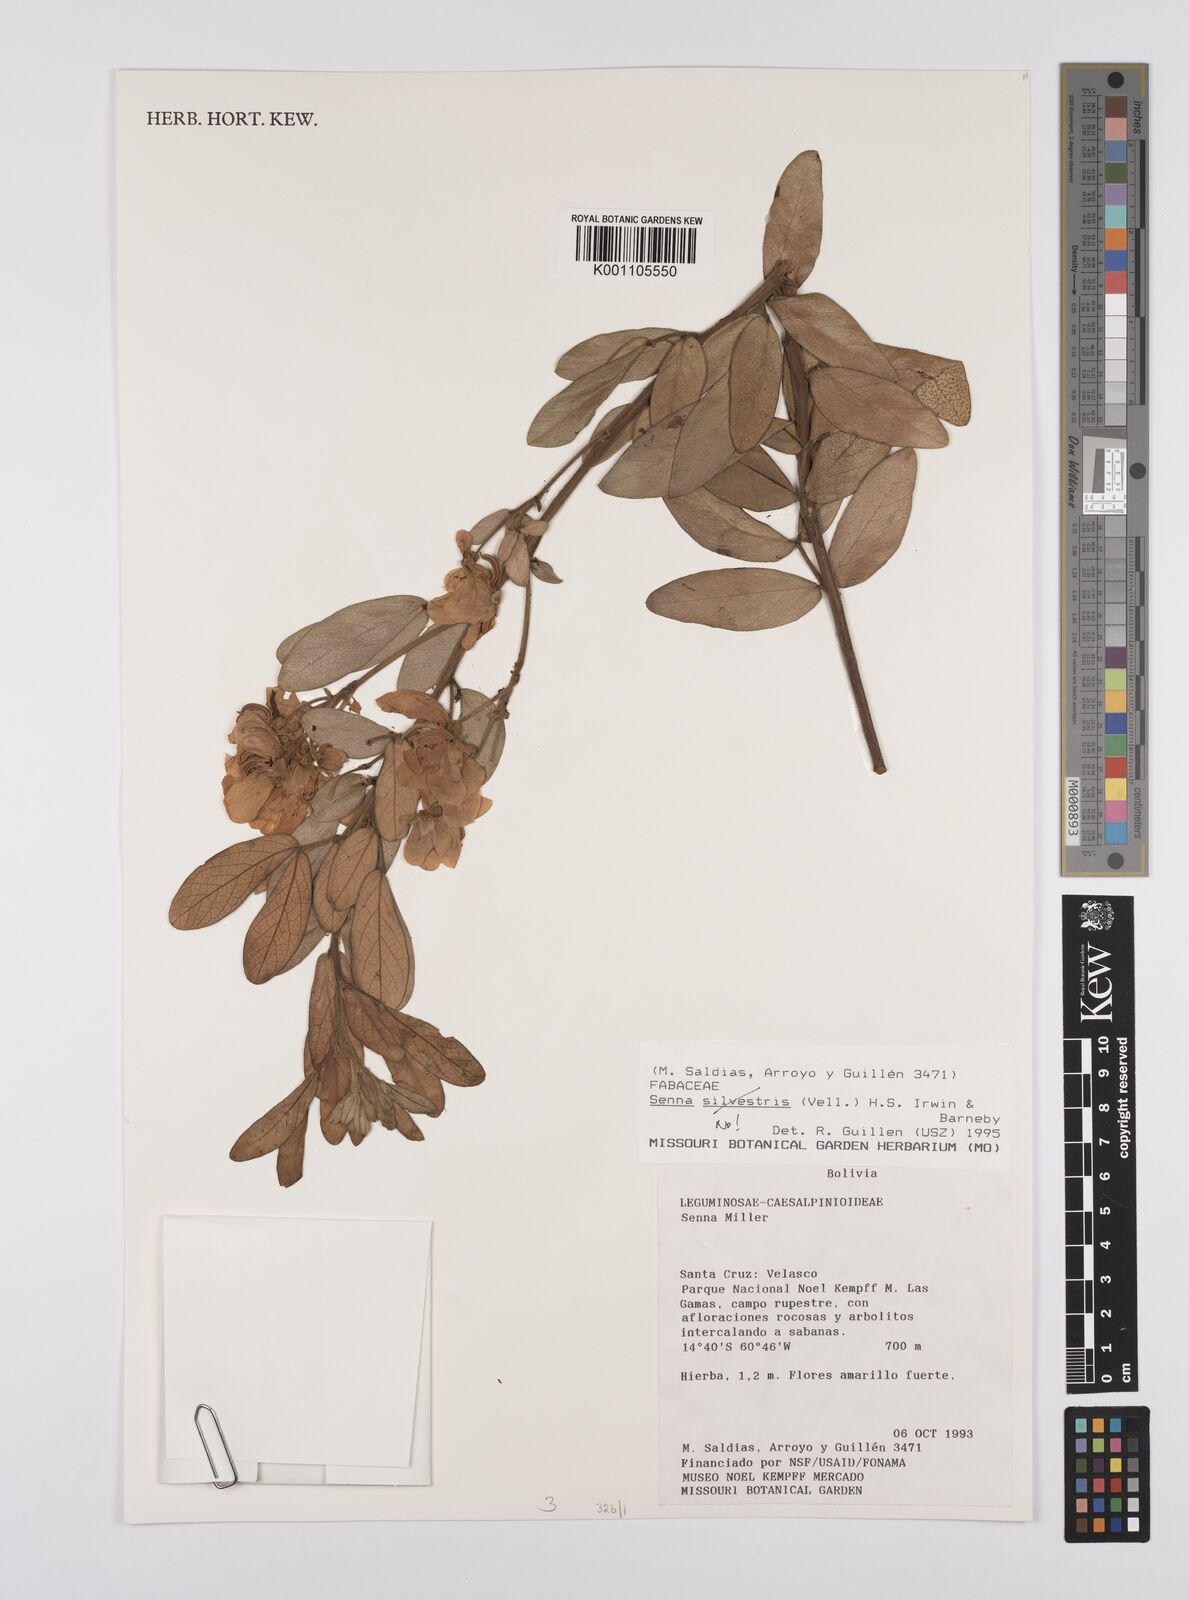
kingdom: Plantae
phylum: Tracheophyta
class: Magnoliopsida
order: Fabales
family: Fabaceae
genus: Senna
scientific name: Senna
